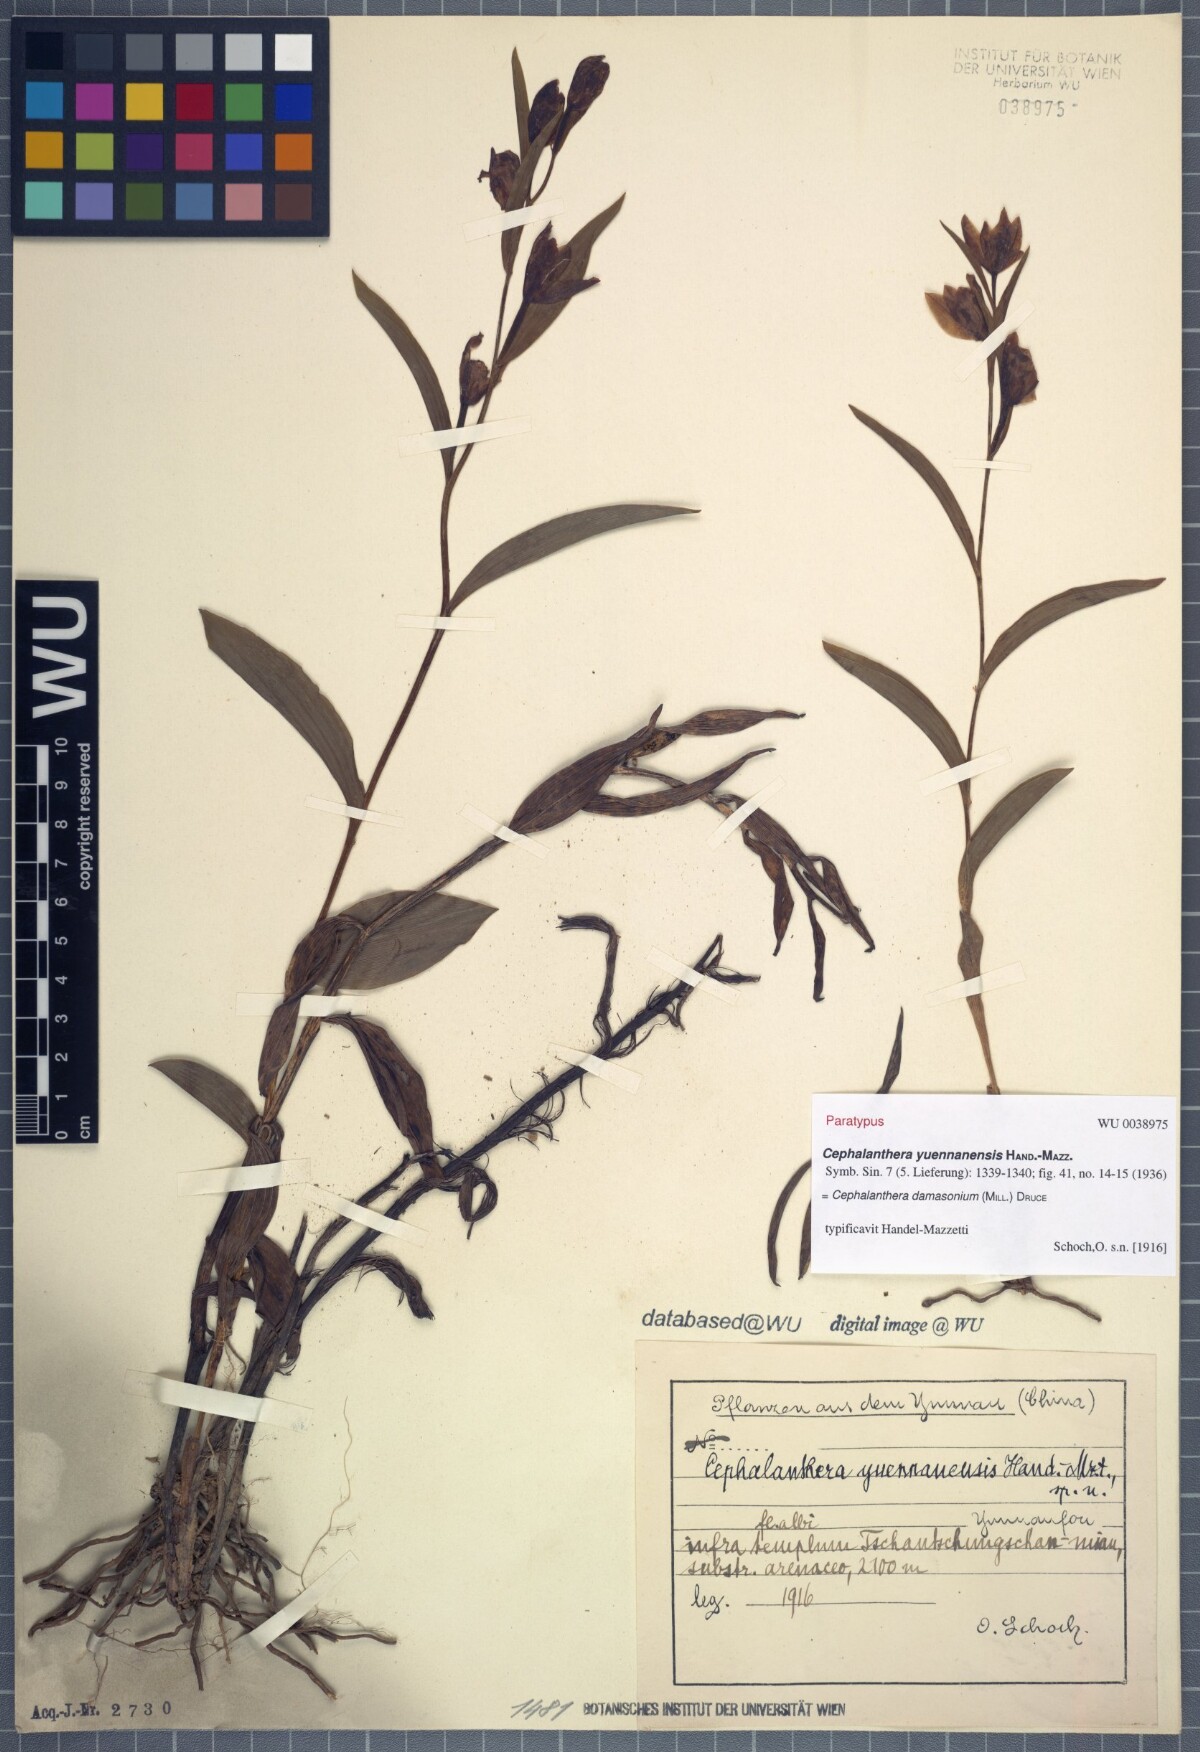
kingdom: Plantae
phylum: Tracheophyta
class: Liliopsida
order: Asparagales
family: Orchidaceae
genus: Cephalanthera
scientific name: Cephalanthera damasonium
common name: White helleborine
